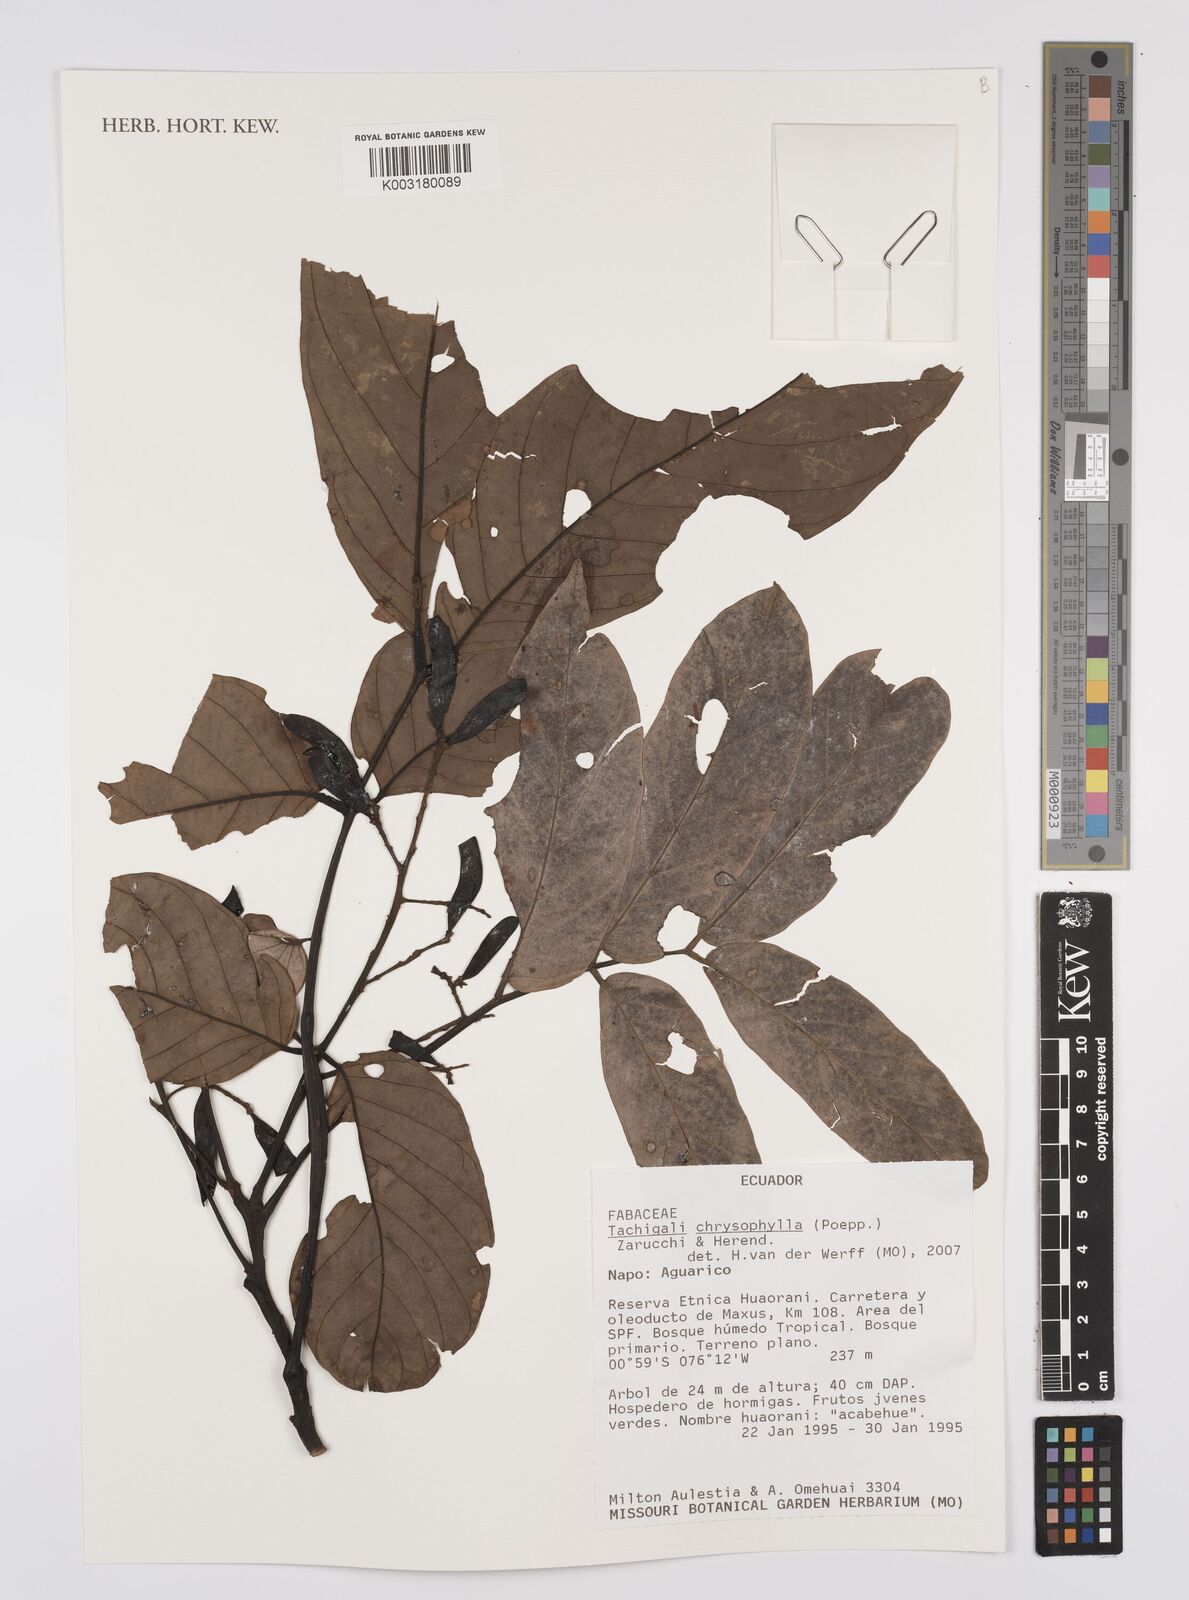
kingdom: Plantae
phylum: Tracheophyta
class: Magnoliopsida
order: Fabales
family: Fabaceae
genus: Tachigali
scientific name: Tachigali chrysophylla
